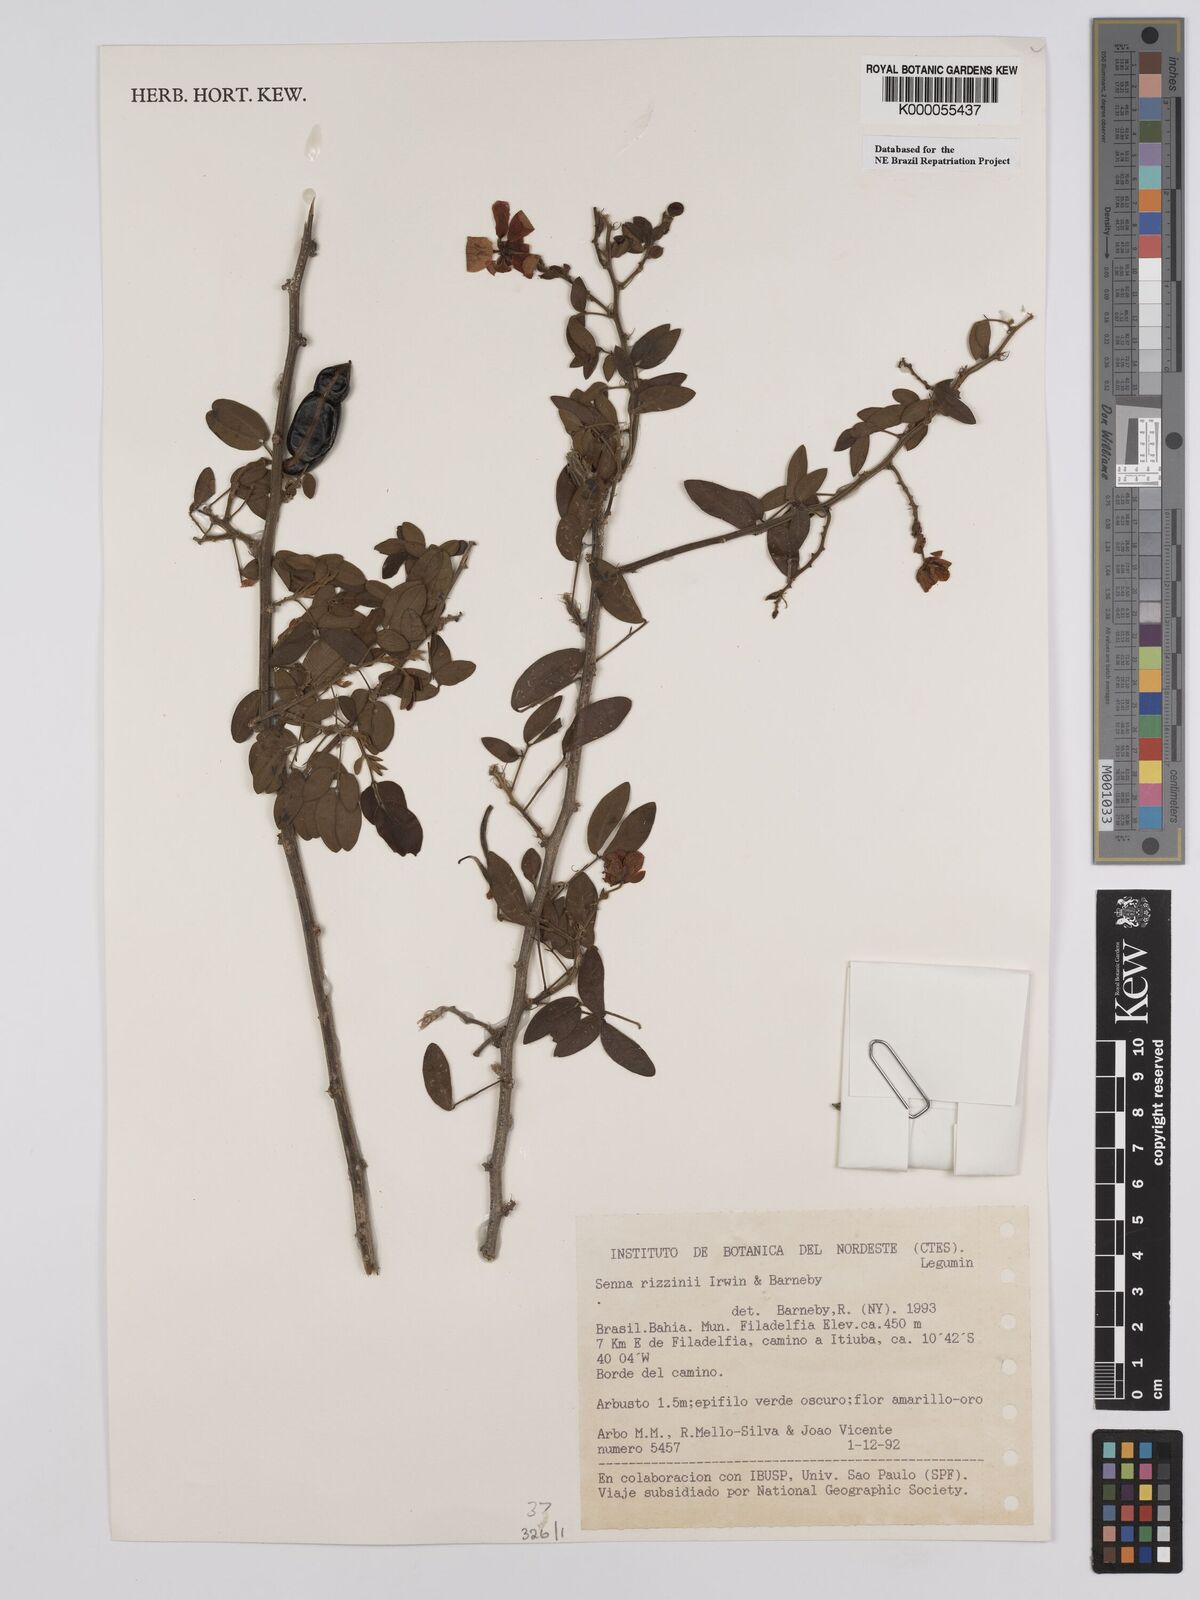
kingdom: Plantae
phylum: Tracheophyta
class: Magnoliopsida
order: Fabales
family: Fabaceae
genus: Senna
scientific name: Senna rizzinii
